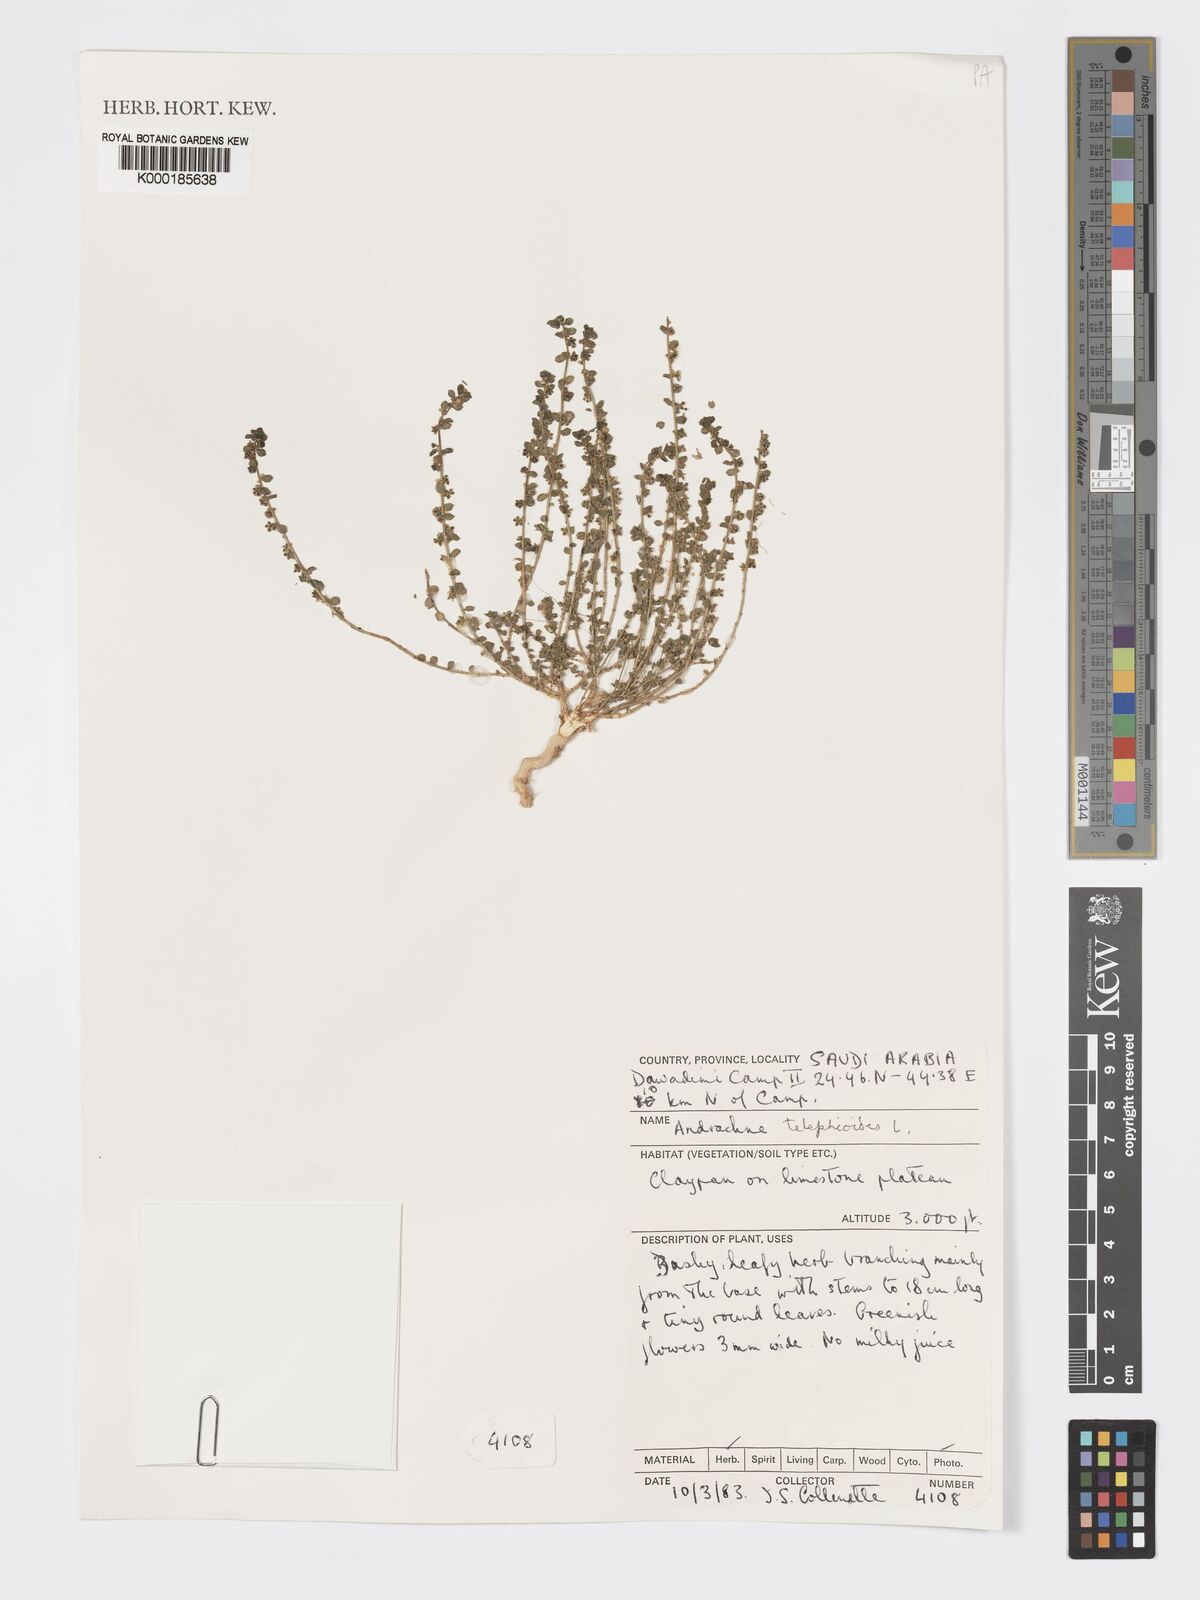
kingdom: Plantae
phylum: Tracheophyta
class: Magnoliopsida
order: Malpighiales
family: Phyllanthaceae
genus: Andrachne
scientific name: Andrachne telephioides
